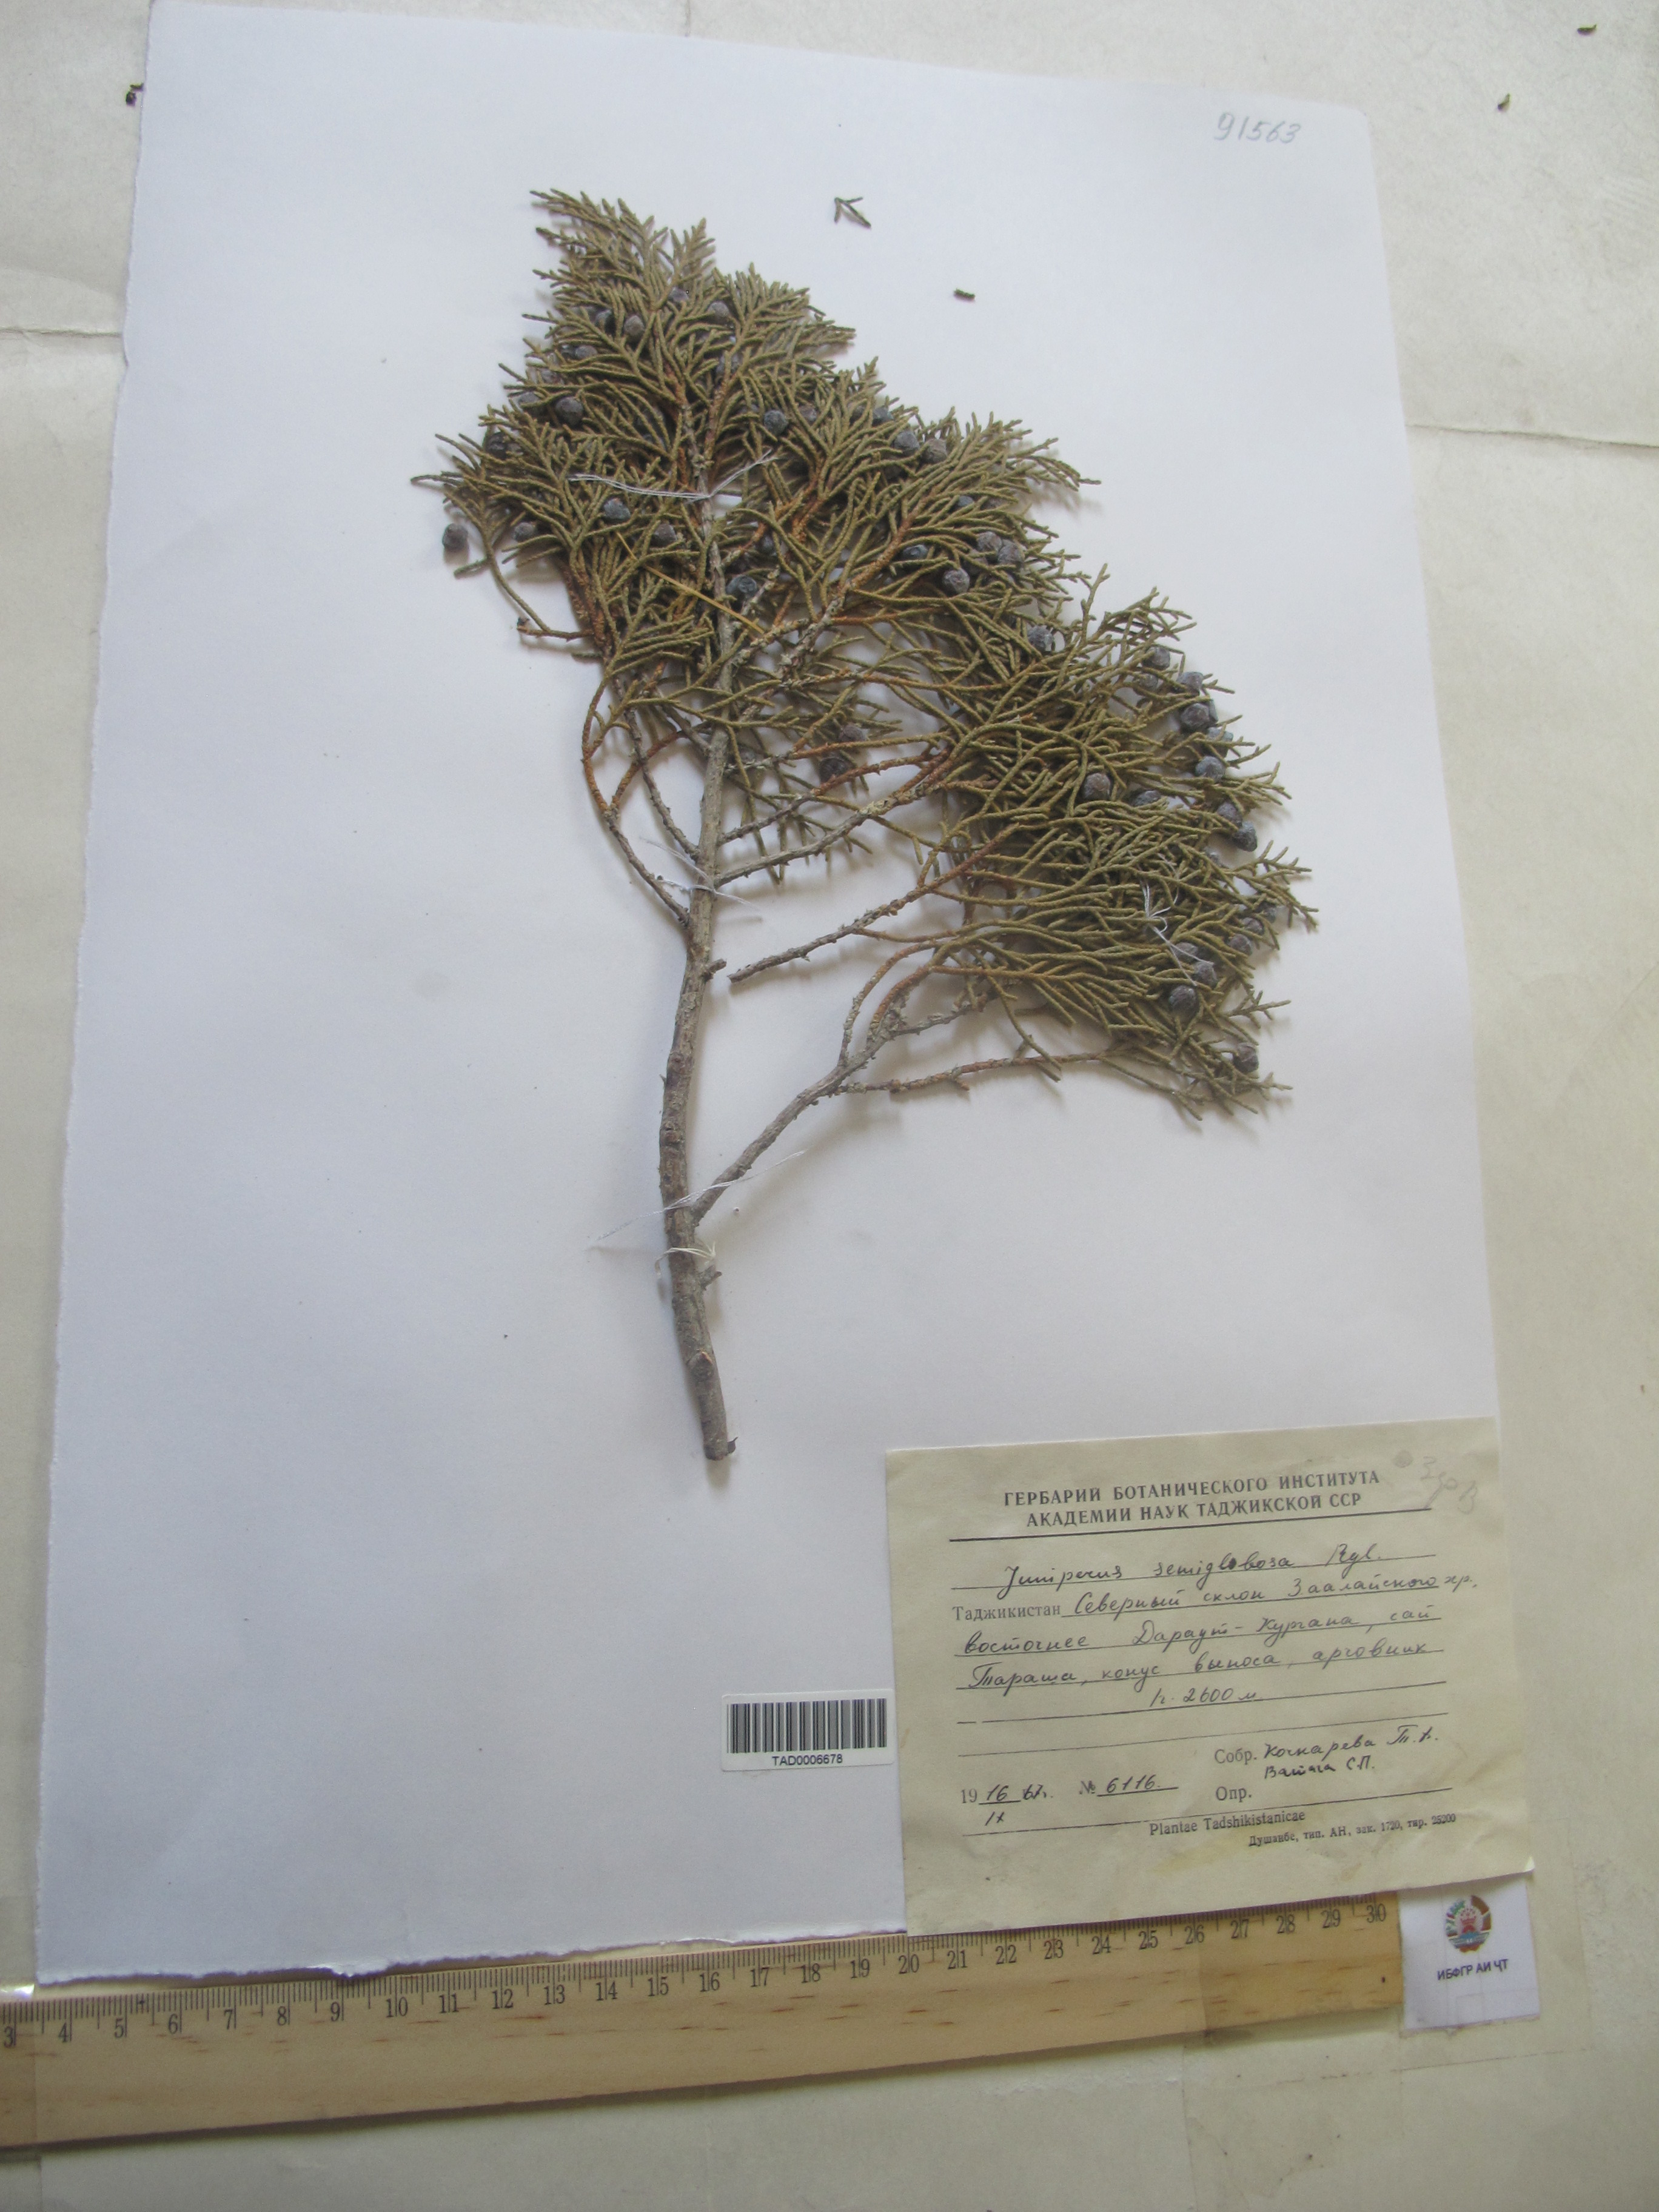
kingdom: Plantae
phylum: Tracheophyta
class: Pinopsida
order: Pinales
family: Cupressaceae
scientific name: Cupressaceae
